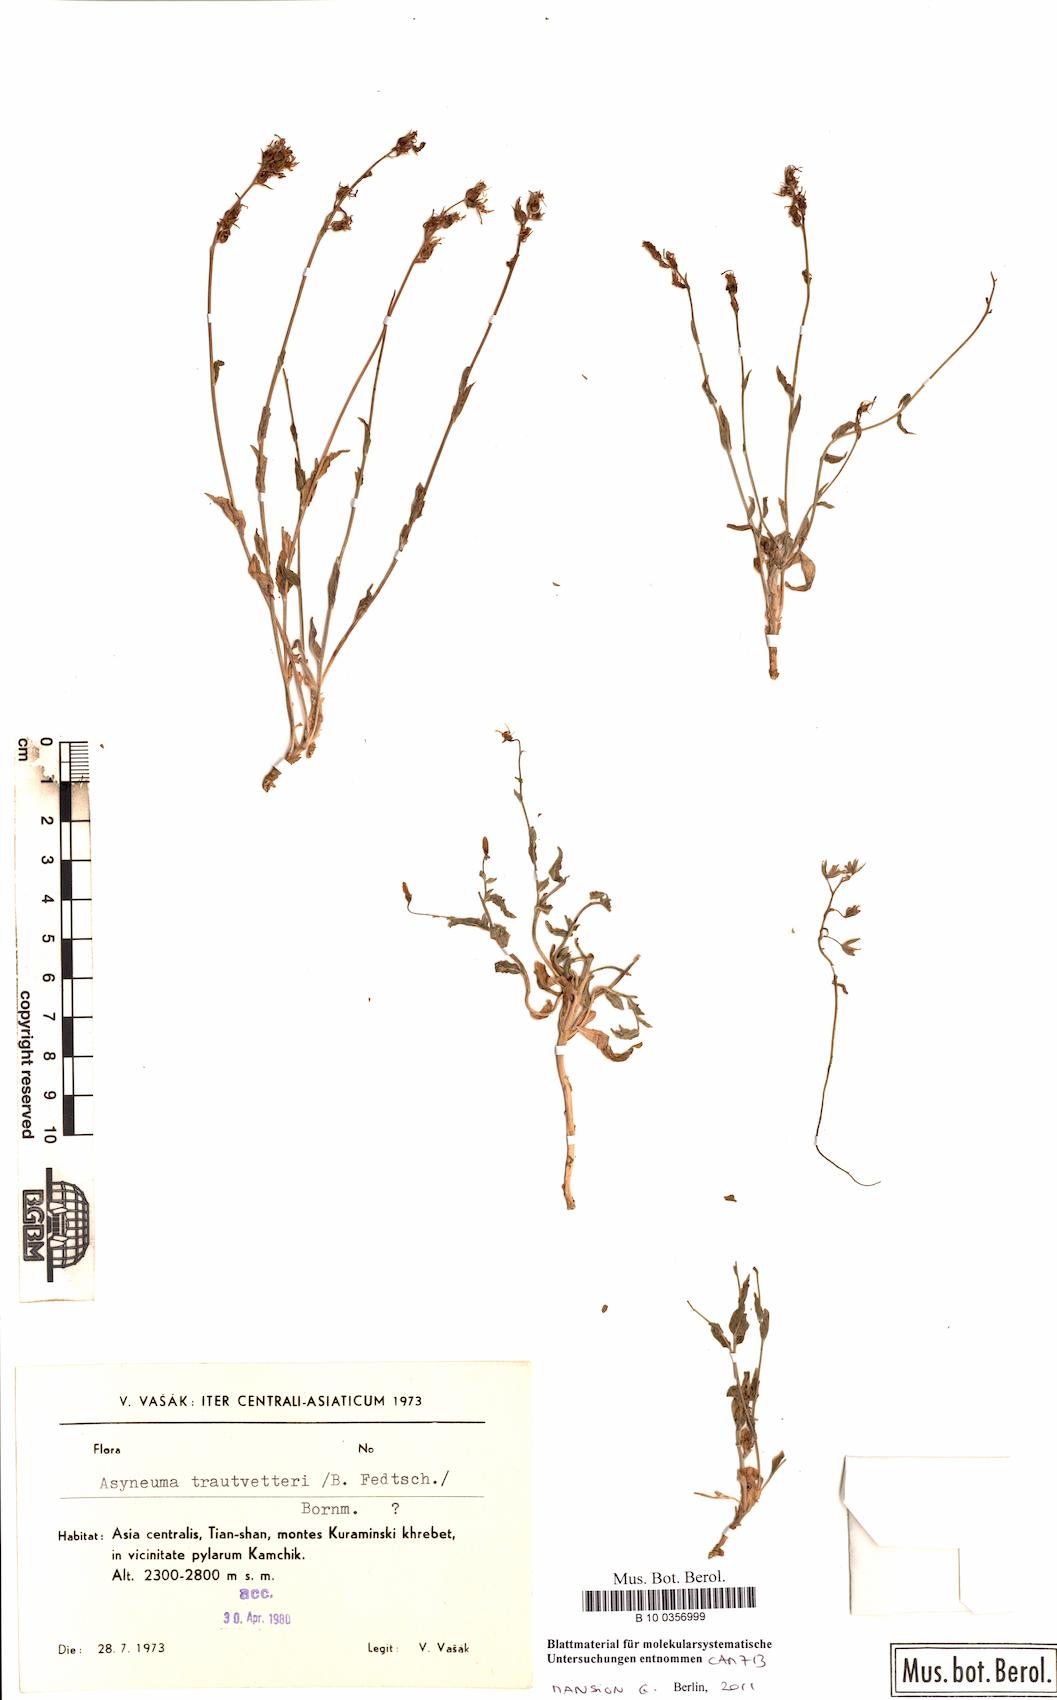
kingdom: Plantae
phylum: Tracheophyta
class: Magnoliopsida
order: Asterales
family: Campanulaceae
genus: Asyneuma
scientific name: Asyneuma argutum
